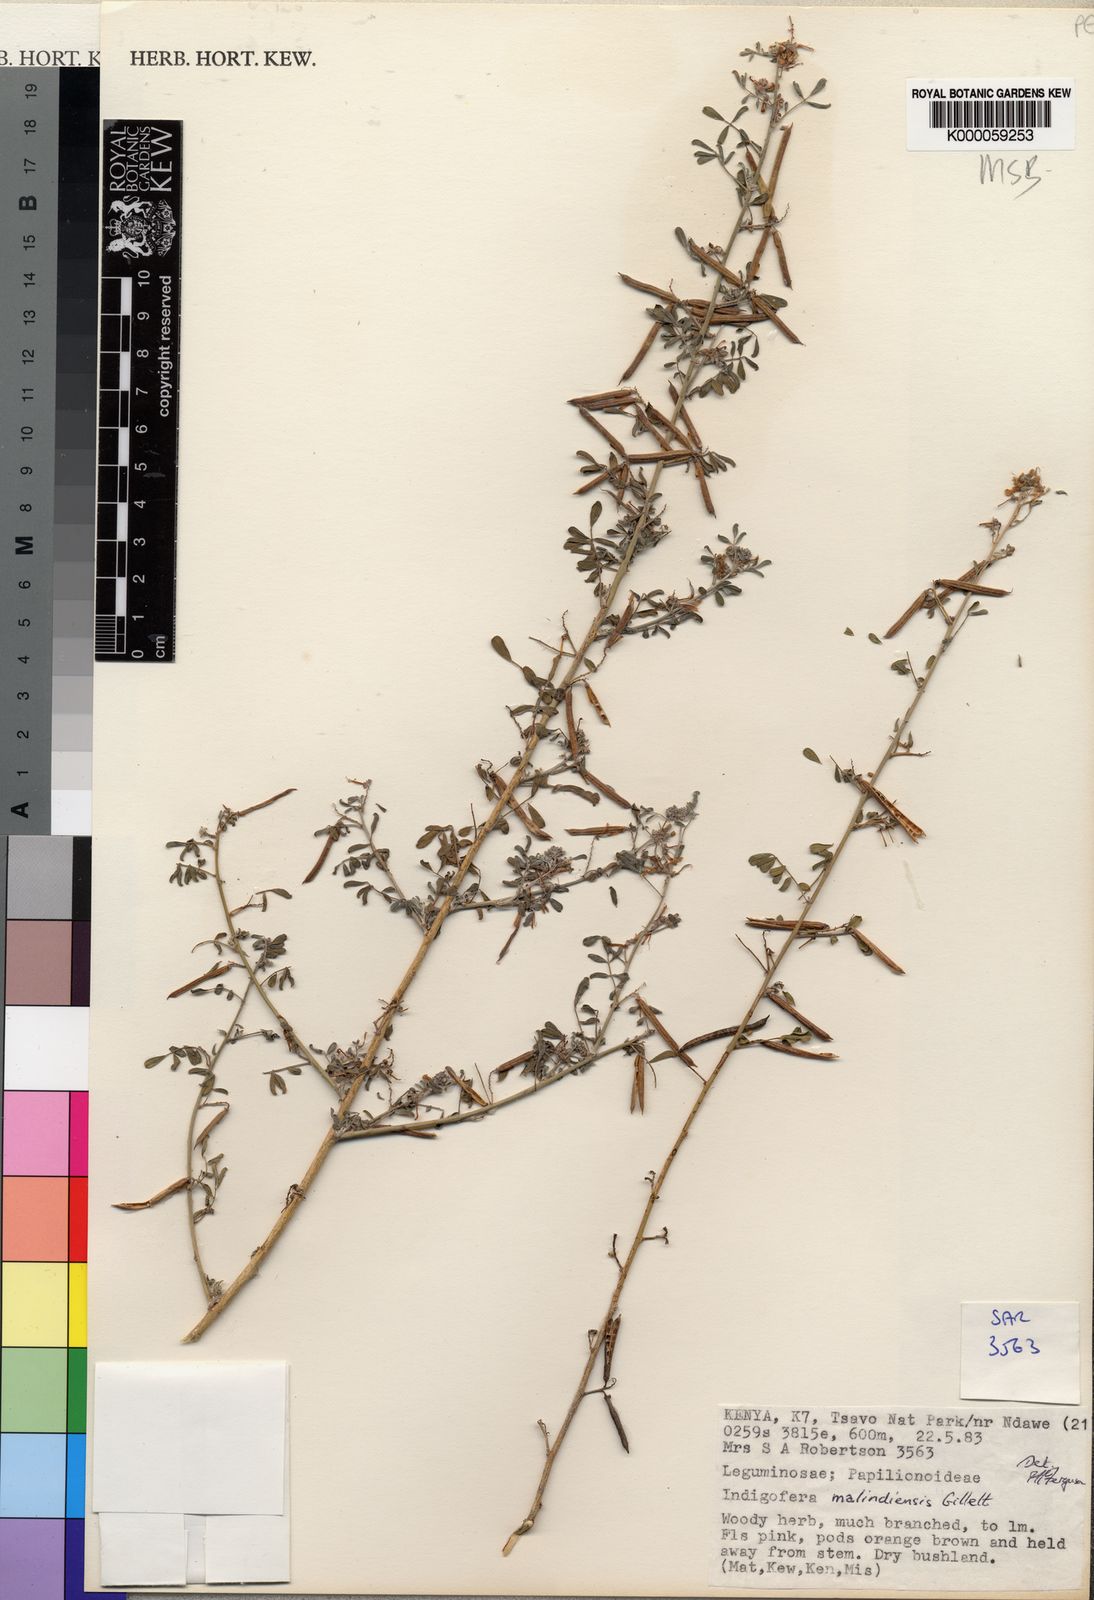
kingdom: Plantae
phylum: Tracheophyta
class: Magnoliopsida
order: Fabales
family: Fabaceae
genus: Indigofera
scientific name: Indigofera malindiensis
